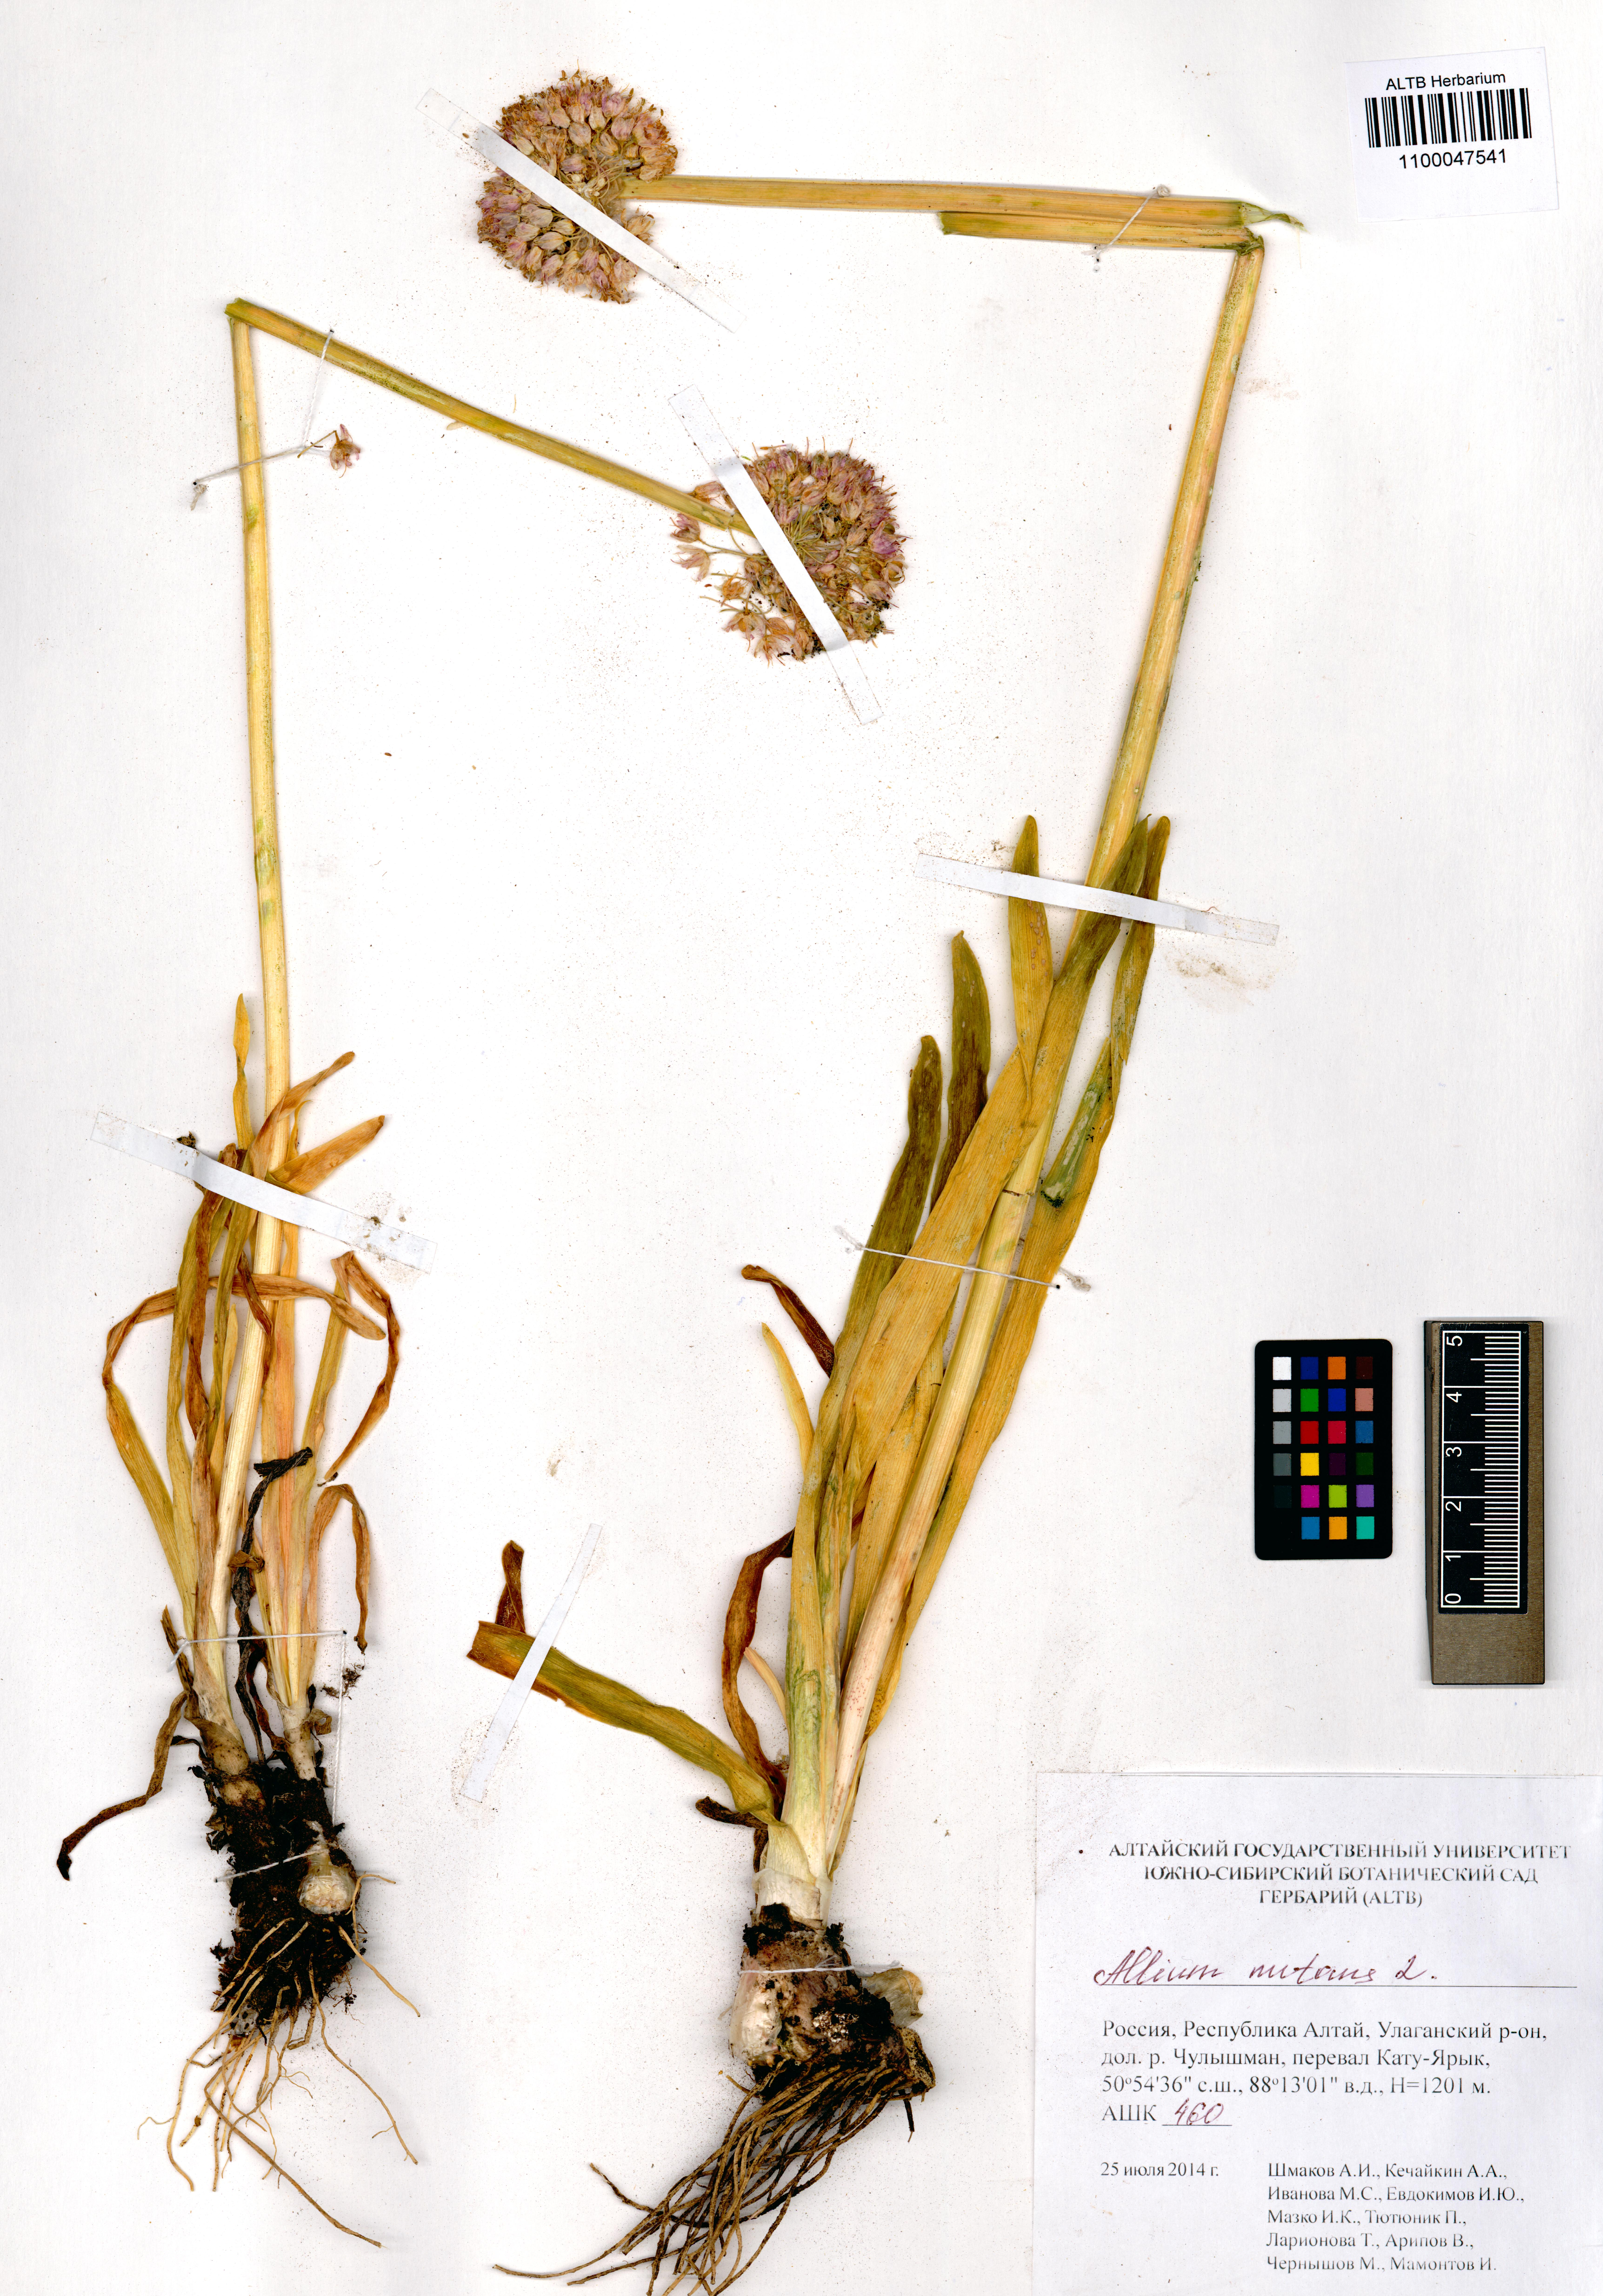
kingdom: Plantae
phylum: Tracheophyta
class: Liliopsida
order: Asparagales
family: Amaryllidaceae
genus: Allium
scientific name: Allium nutans
